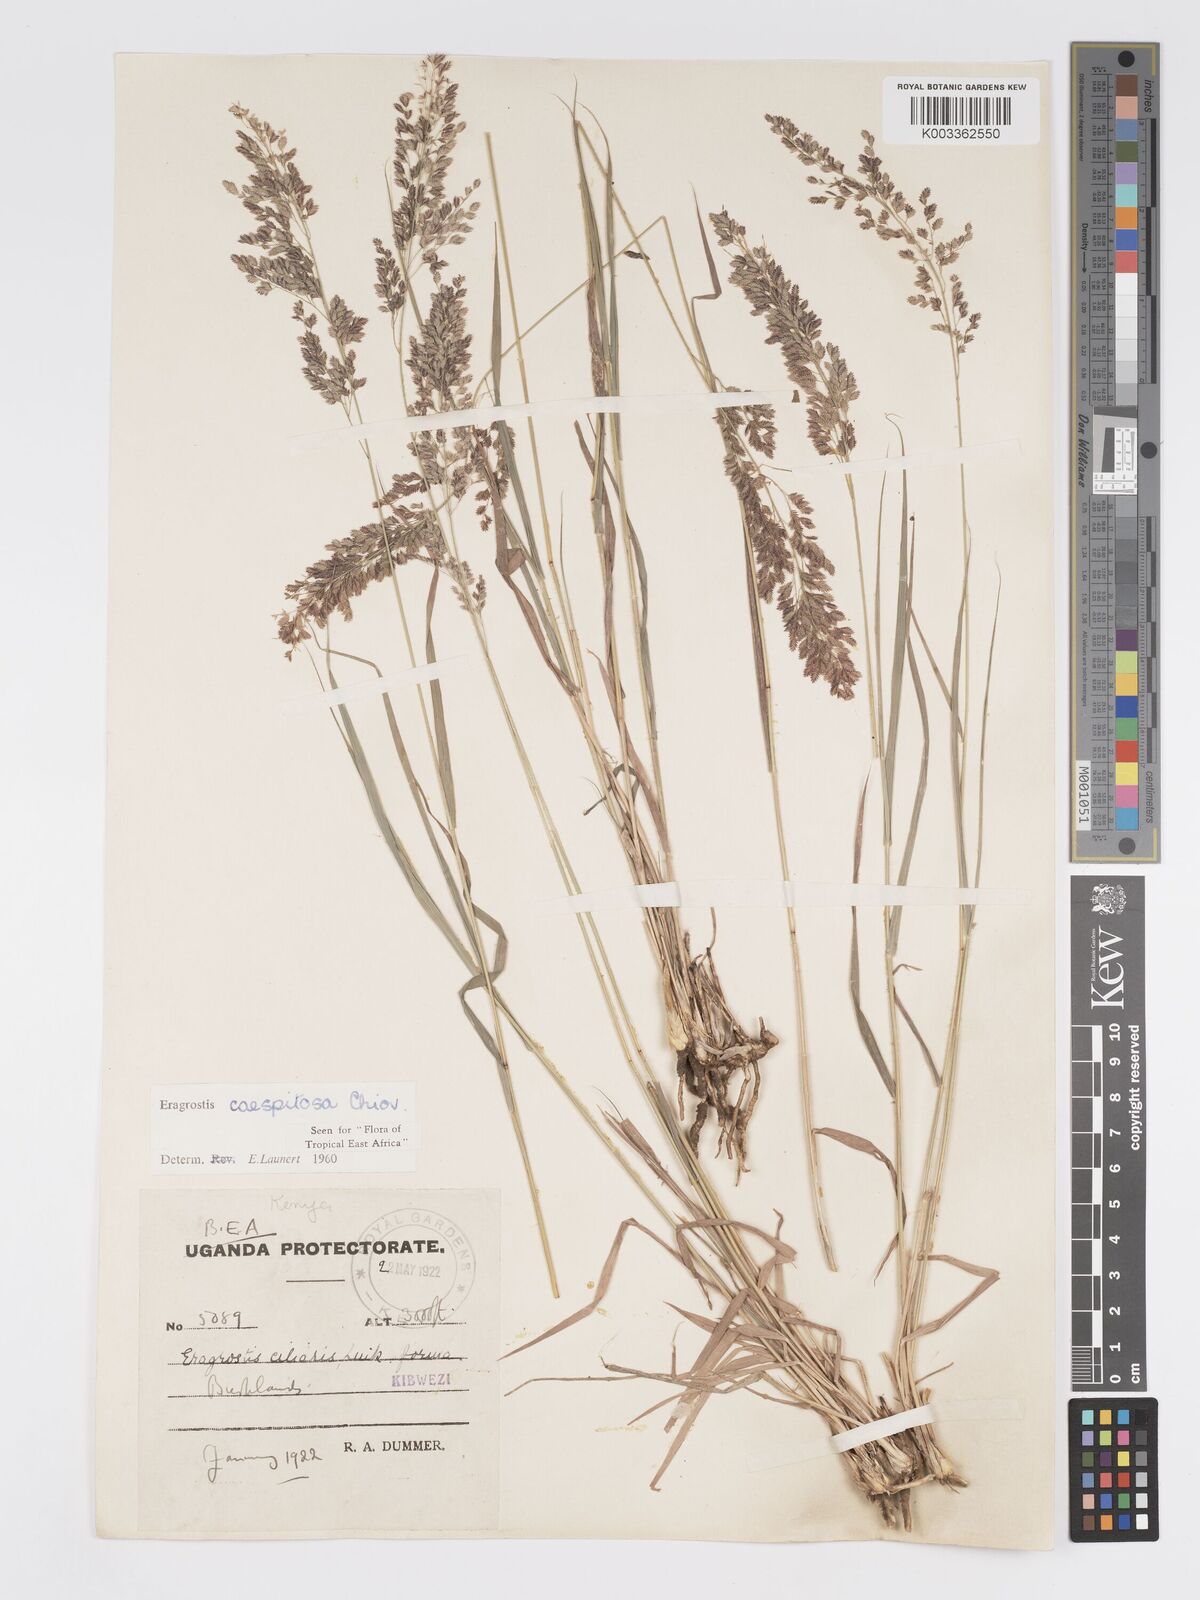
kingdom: Plantae
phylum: Tracheophyta
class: Liliopsida
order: Poales
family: Poaceae
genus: Eragrostis
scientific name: Eragrostis caespitosa
